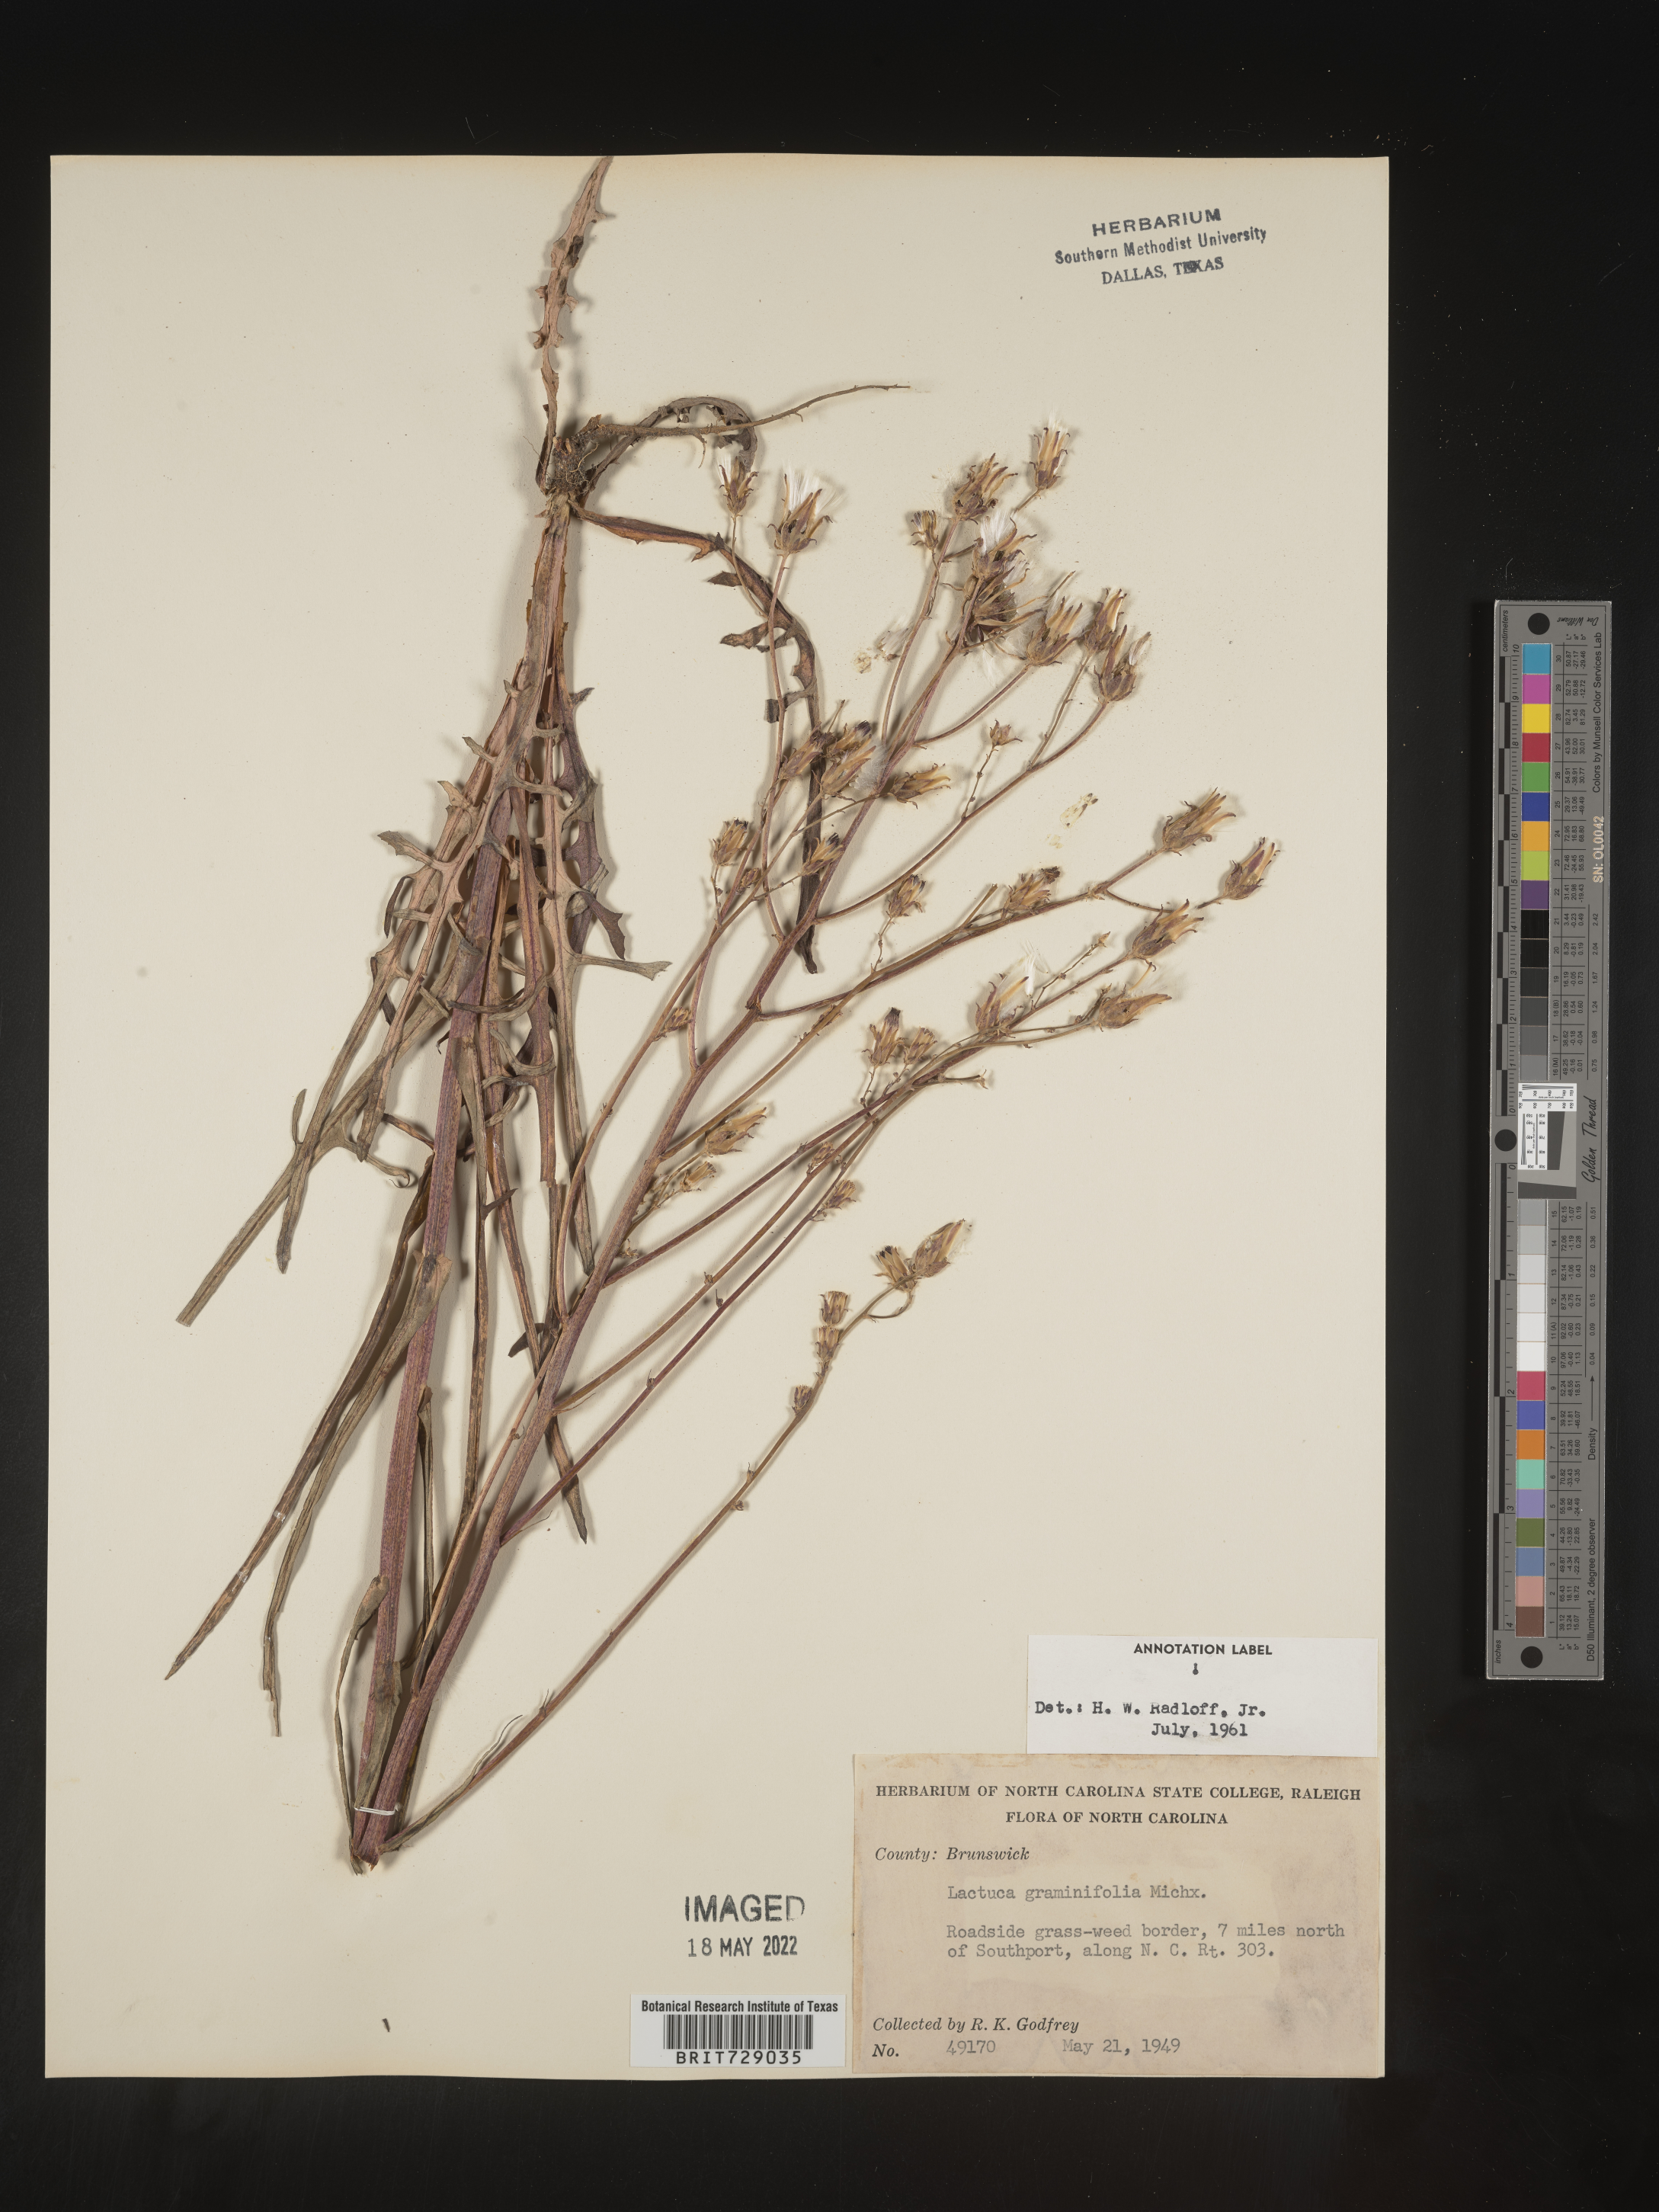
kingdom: Plantae
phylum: Tracheophyta
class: Magnoliopsida
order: Asterales
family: Asteraceae
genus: Lactuca
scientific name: Lactuca graminifolia
